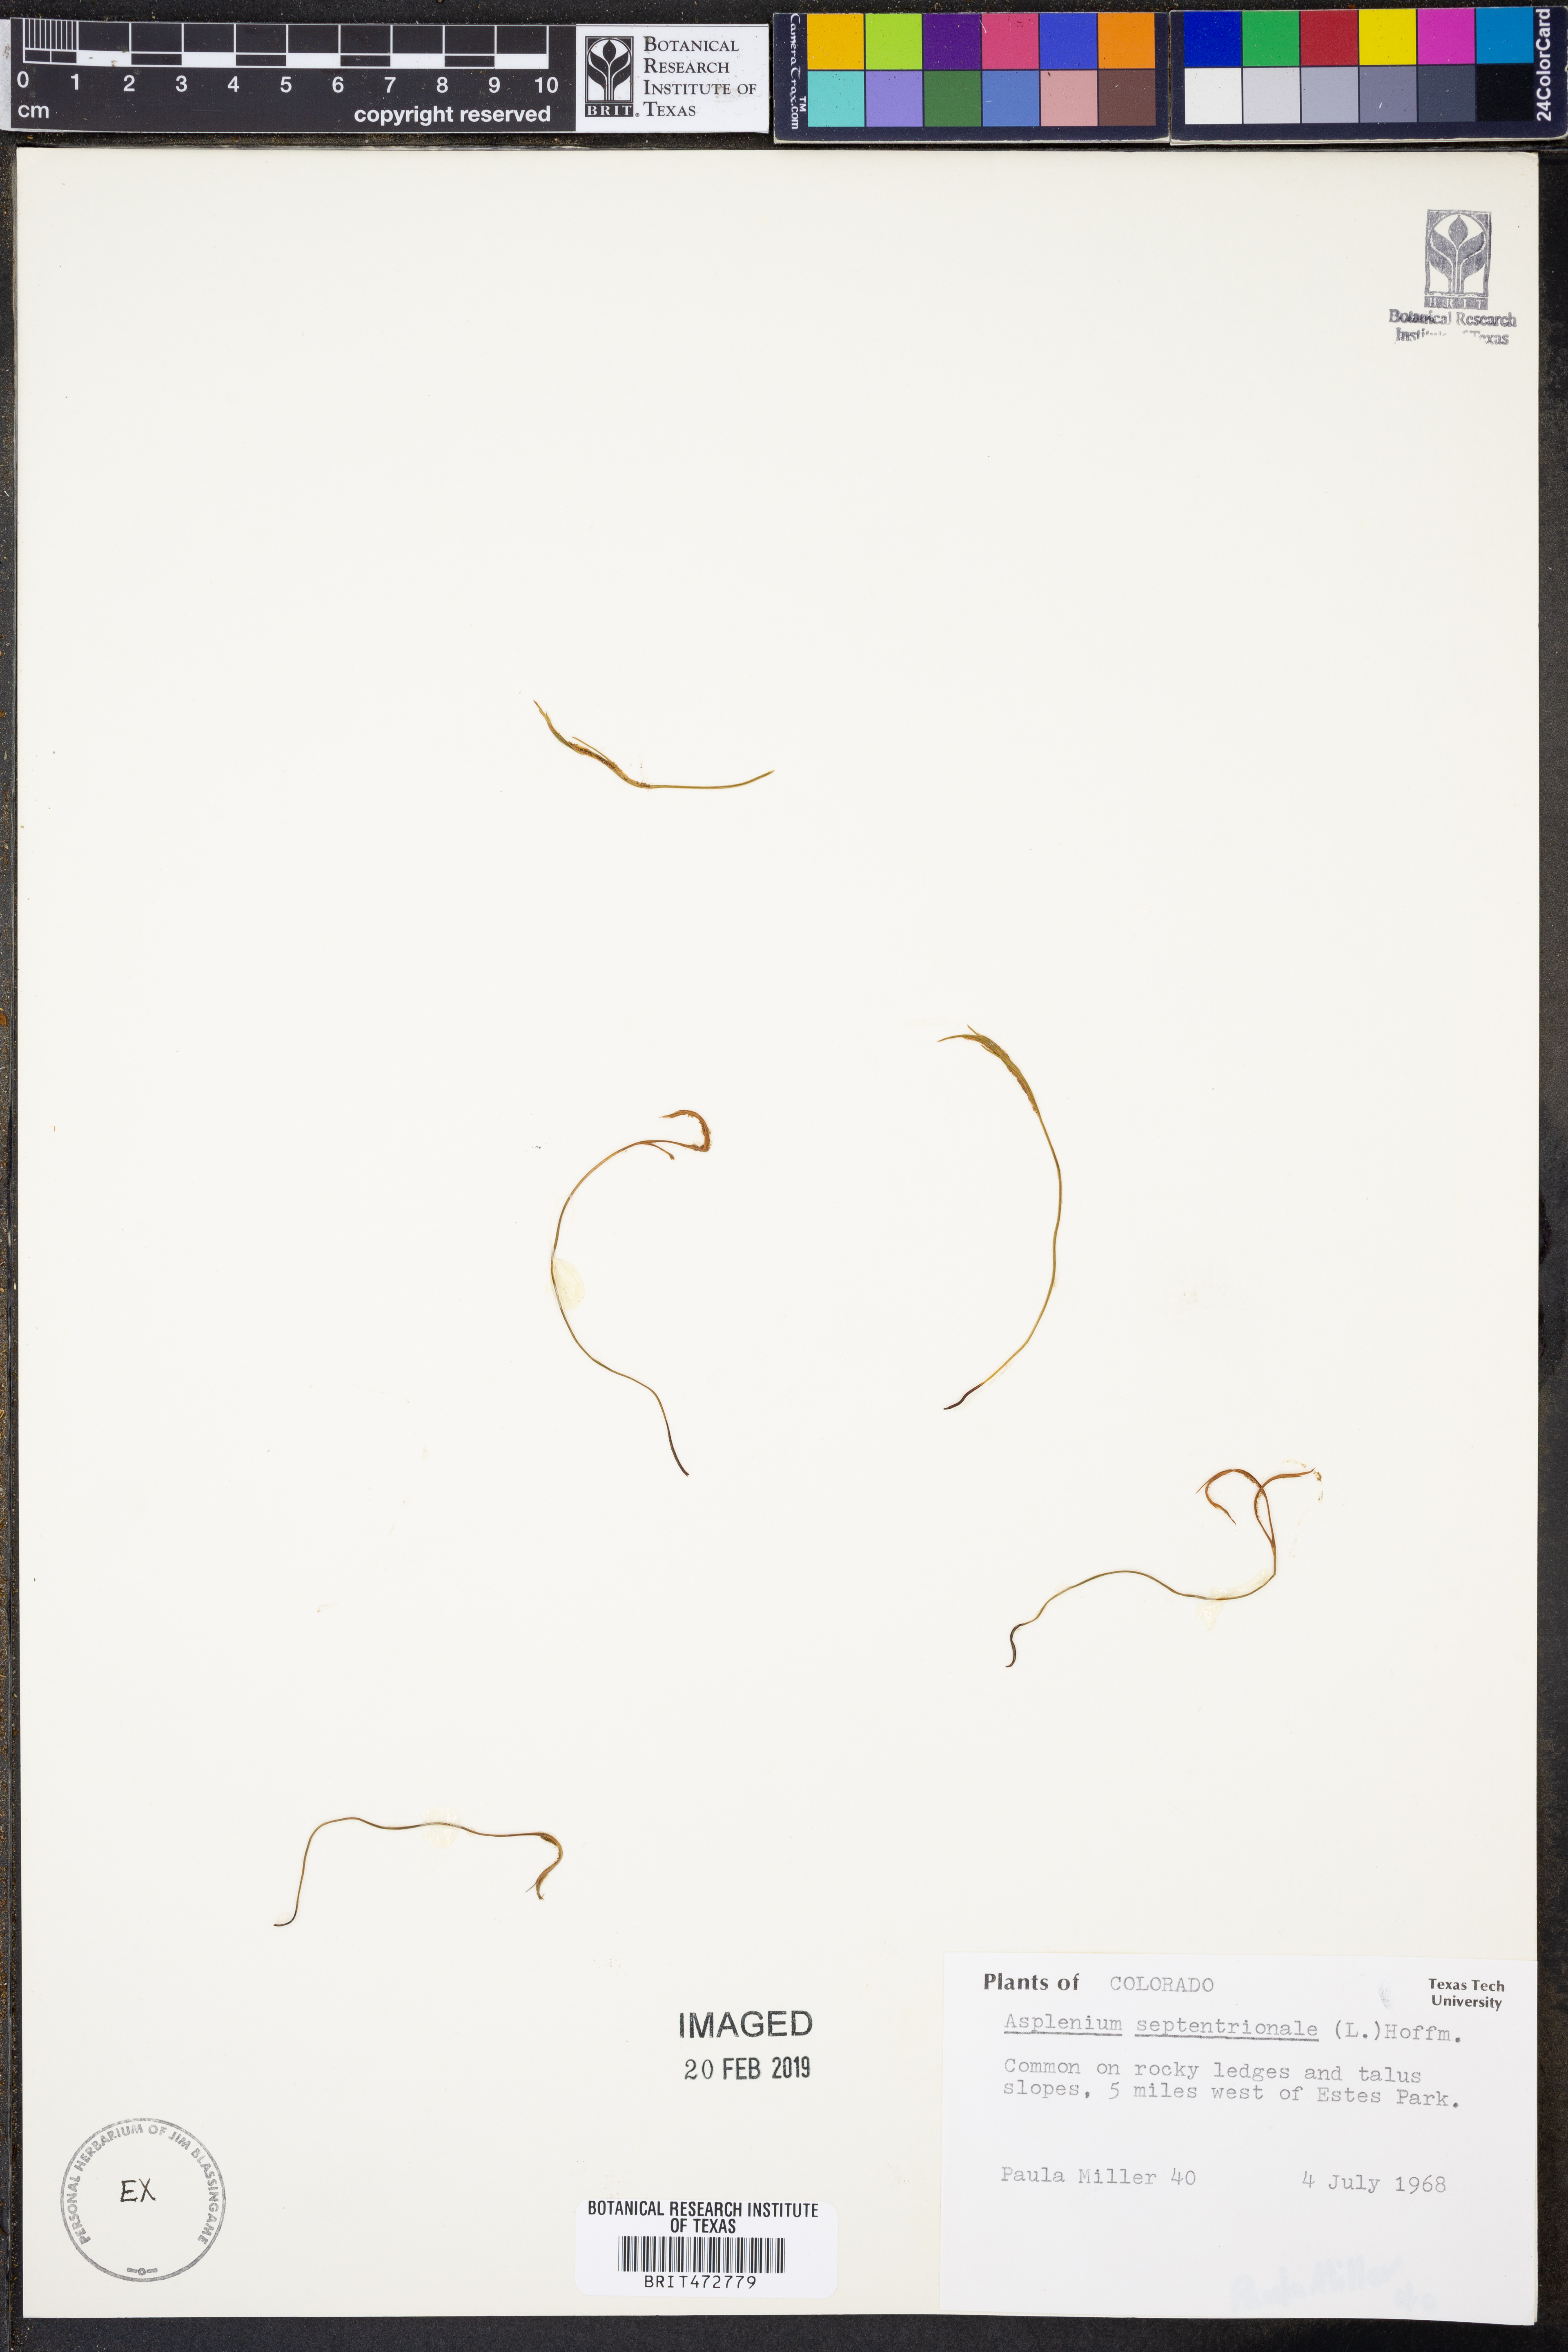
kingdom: Plantae
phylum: Tracheophyta
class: Polypodiopsida
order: Polypodiales
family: Aspleniaceae
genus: Asplenium
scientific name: Asplenium septentrionale
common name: Forked spleenwort
